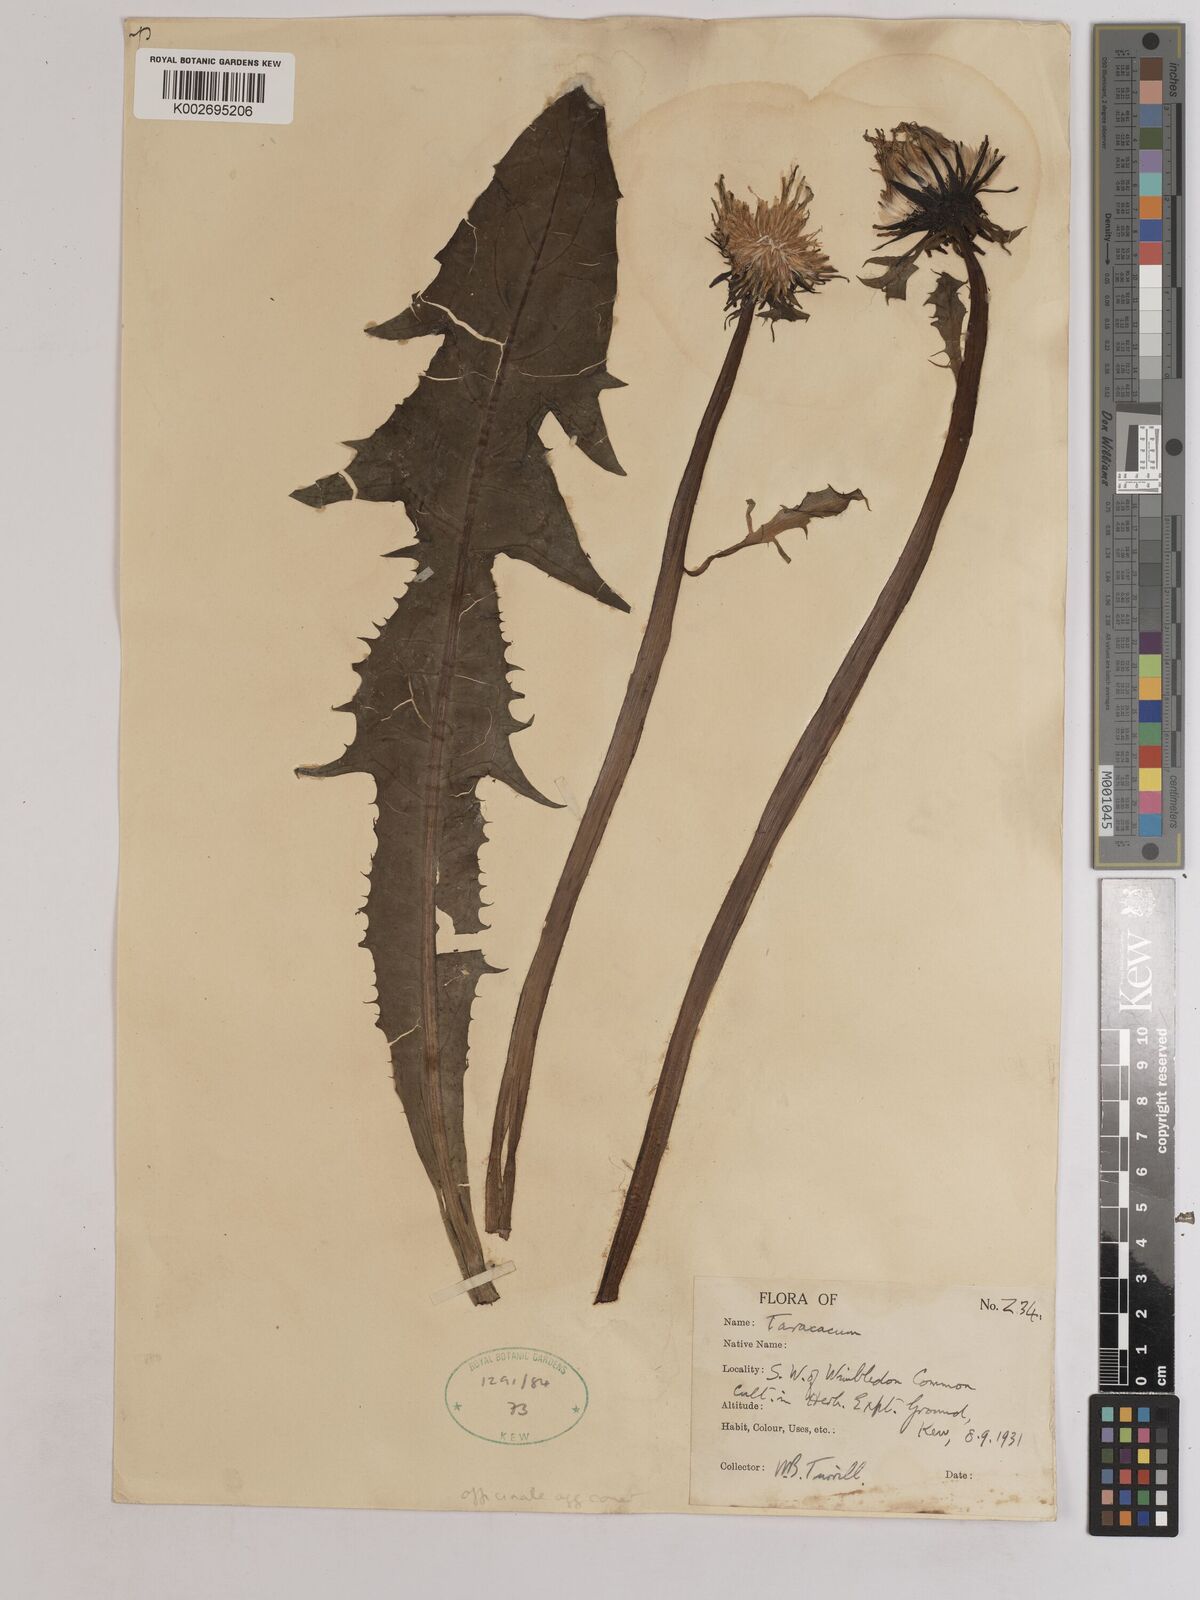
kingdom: Plantae
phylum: Tracheophyta
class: Magnoliopsida
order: Asterales
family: Asteraceae
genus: Taraxacum
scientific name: Taraxacum officinale
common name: Common dandelion
